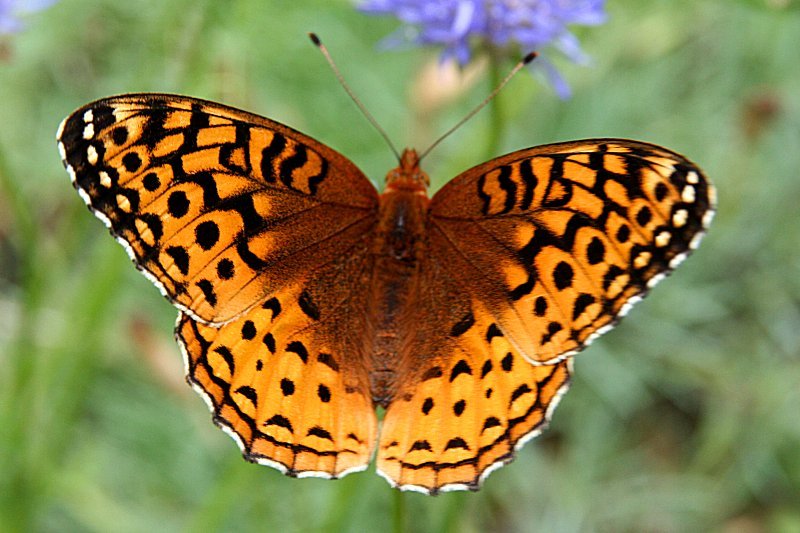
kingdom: Animalia
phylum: Arthropoda
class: Insecta
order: Lepidoptera
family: Nymphalidae
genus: Speyeria
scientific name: Speyeria atlantis
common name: Atlantis Fritillary
